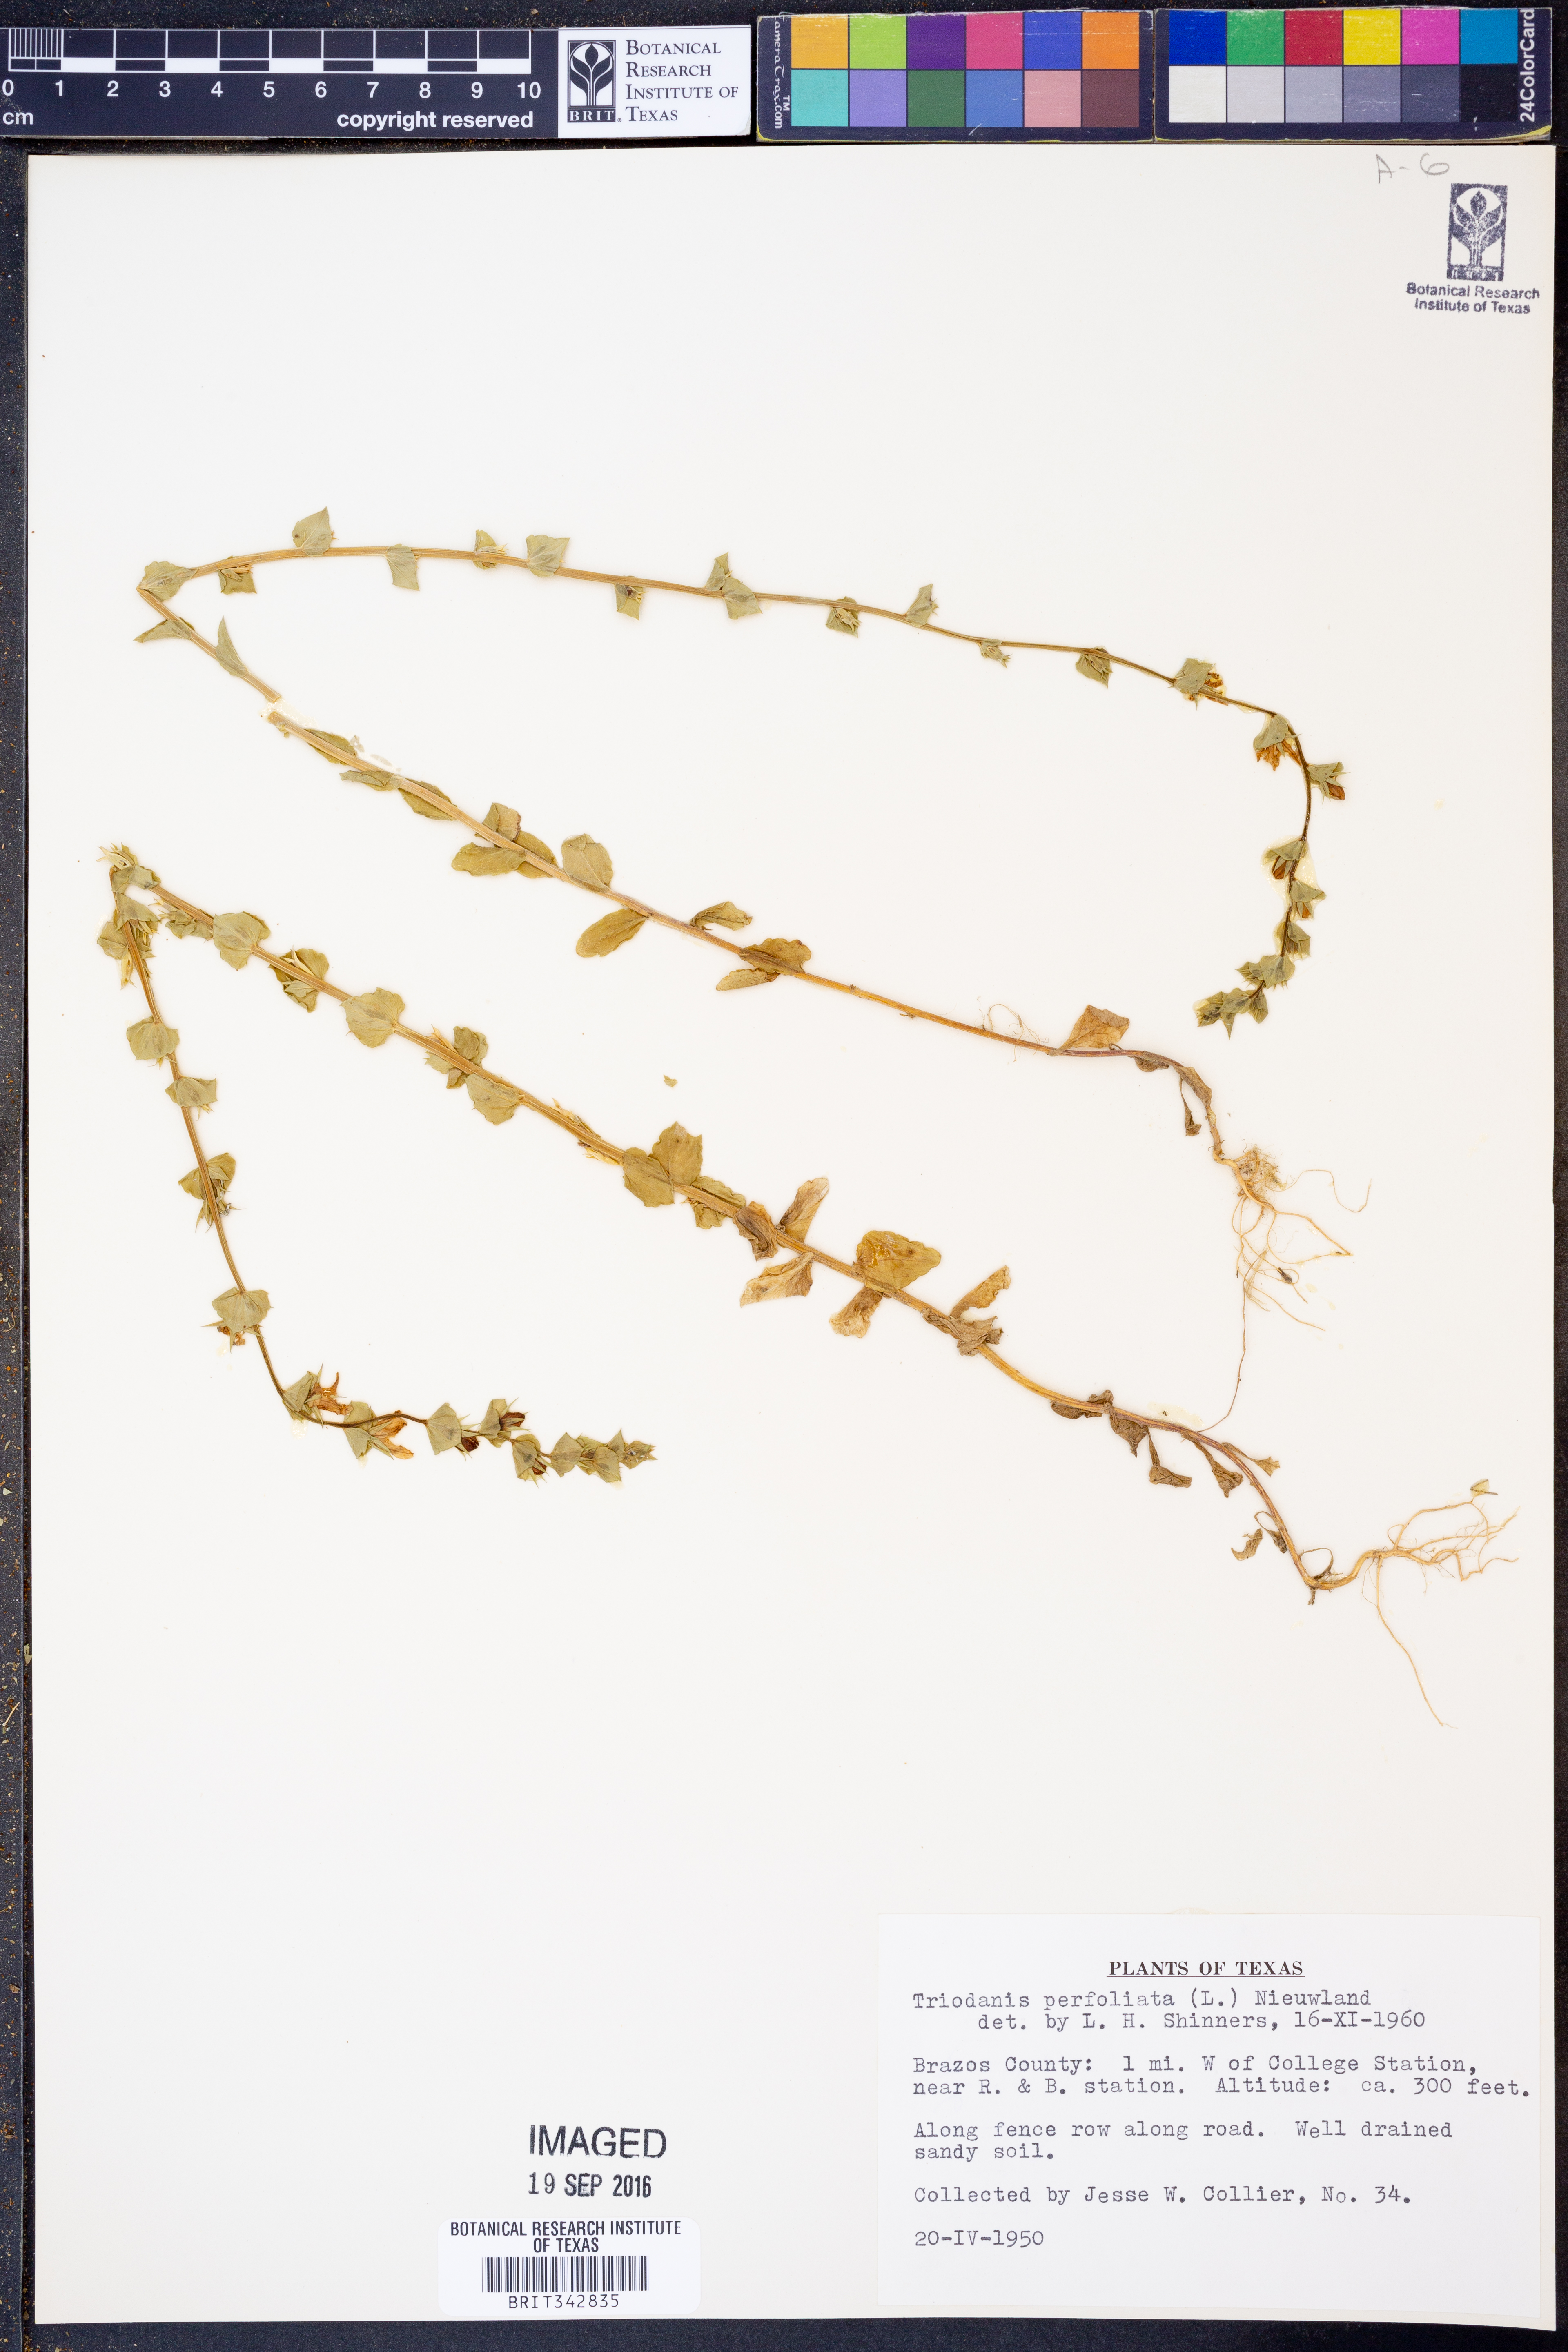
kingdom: Plantae
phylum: Tracheophyta
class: Magnoliopsida
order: Asterales
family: Campanulaceae
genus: Triodanis
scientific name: Triodanis perfoliata
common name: Clasping venus' looking-glass
